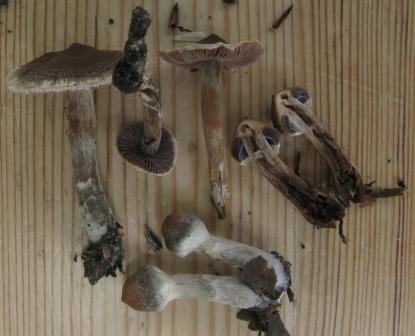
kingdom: Fungi
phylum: Basidiomycota
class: Agaricomycetes
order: Agaricales
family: Cortinariaceae
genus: Cortinarius
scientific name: Cortinarius
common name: pelargonie-slørhat
